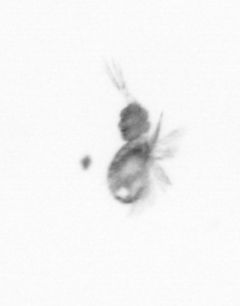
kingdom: Animalia
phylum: Arthropoda
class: Copepoda
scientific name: Copepoda
